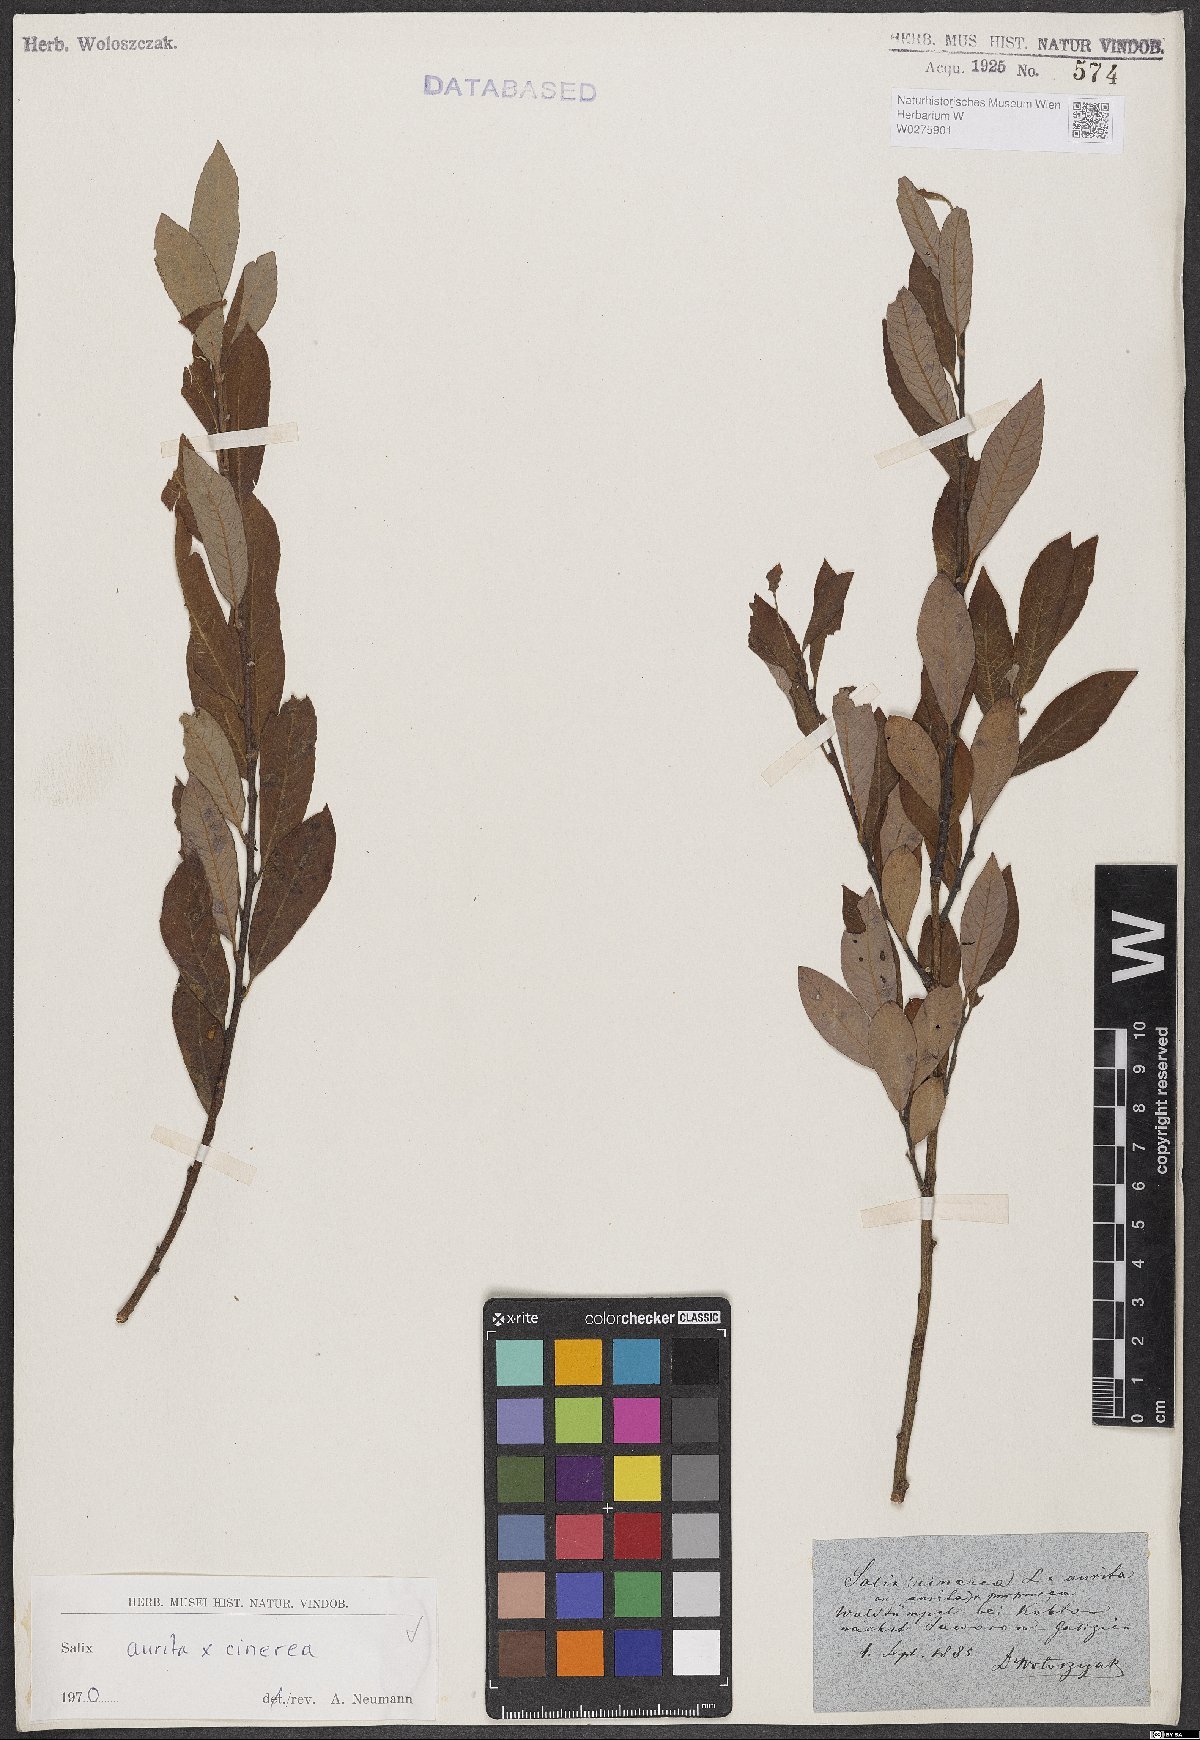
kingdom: Plantae
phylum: Tracheophyta
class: Magnoliopsida
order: Malpighiales
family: Salicaceae
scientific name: Salicaceae
